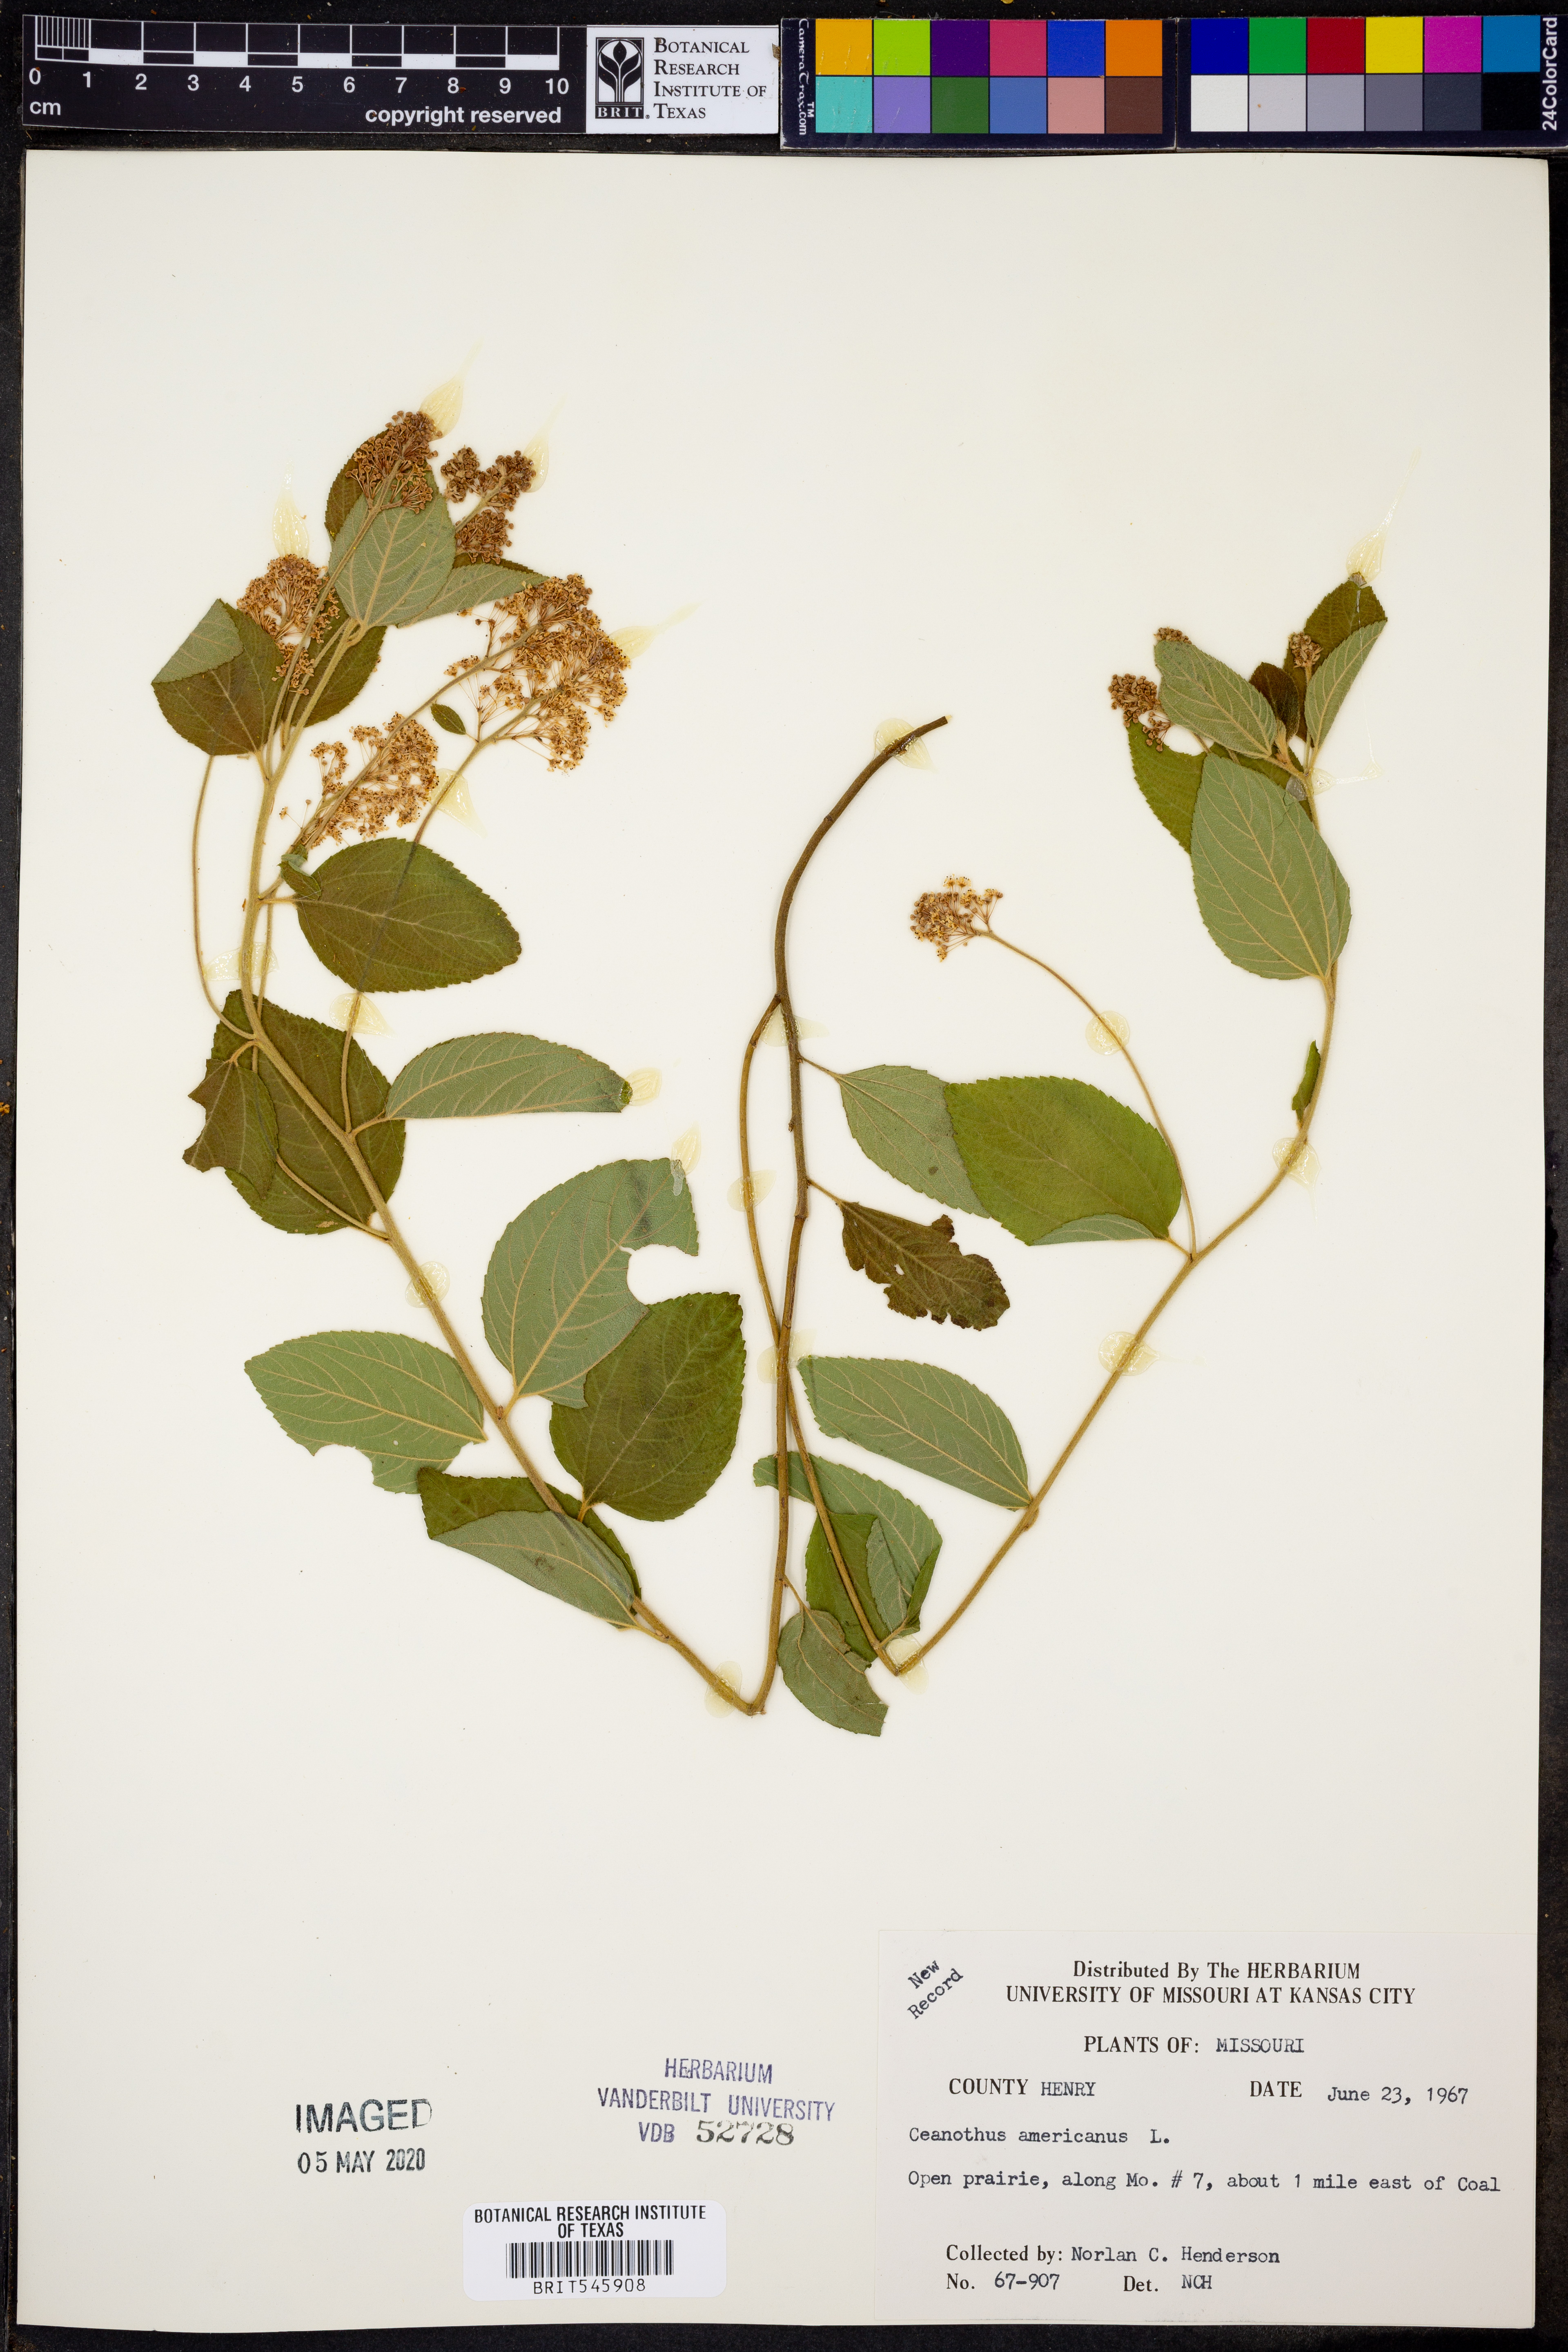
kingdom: Plantae
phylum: Tracheophyta
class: Magnoliopsida
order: Rosales
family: Rhamnaceae
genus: Ceanothus
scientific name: Ceanothus americanus
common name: Redroot
